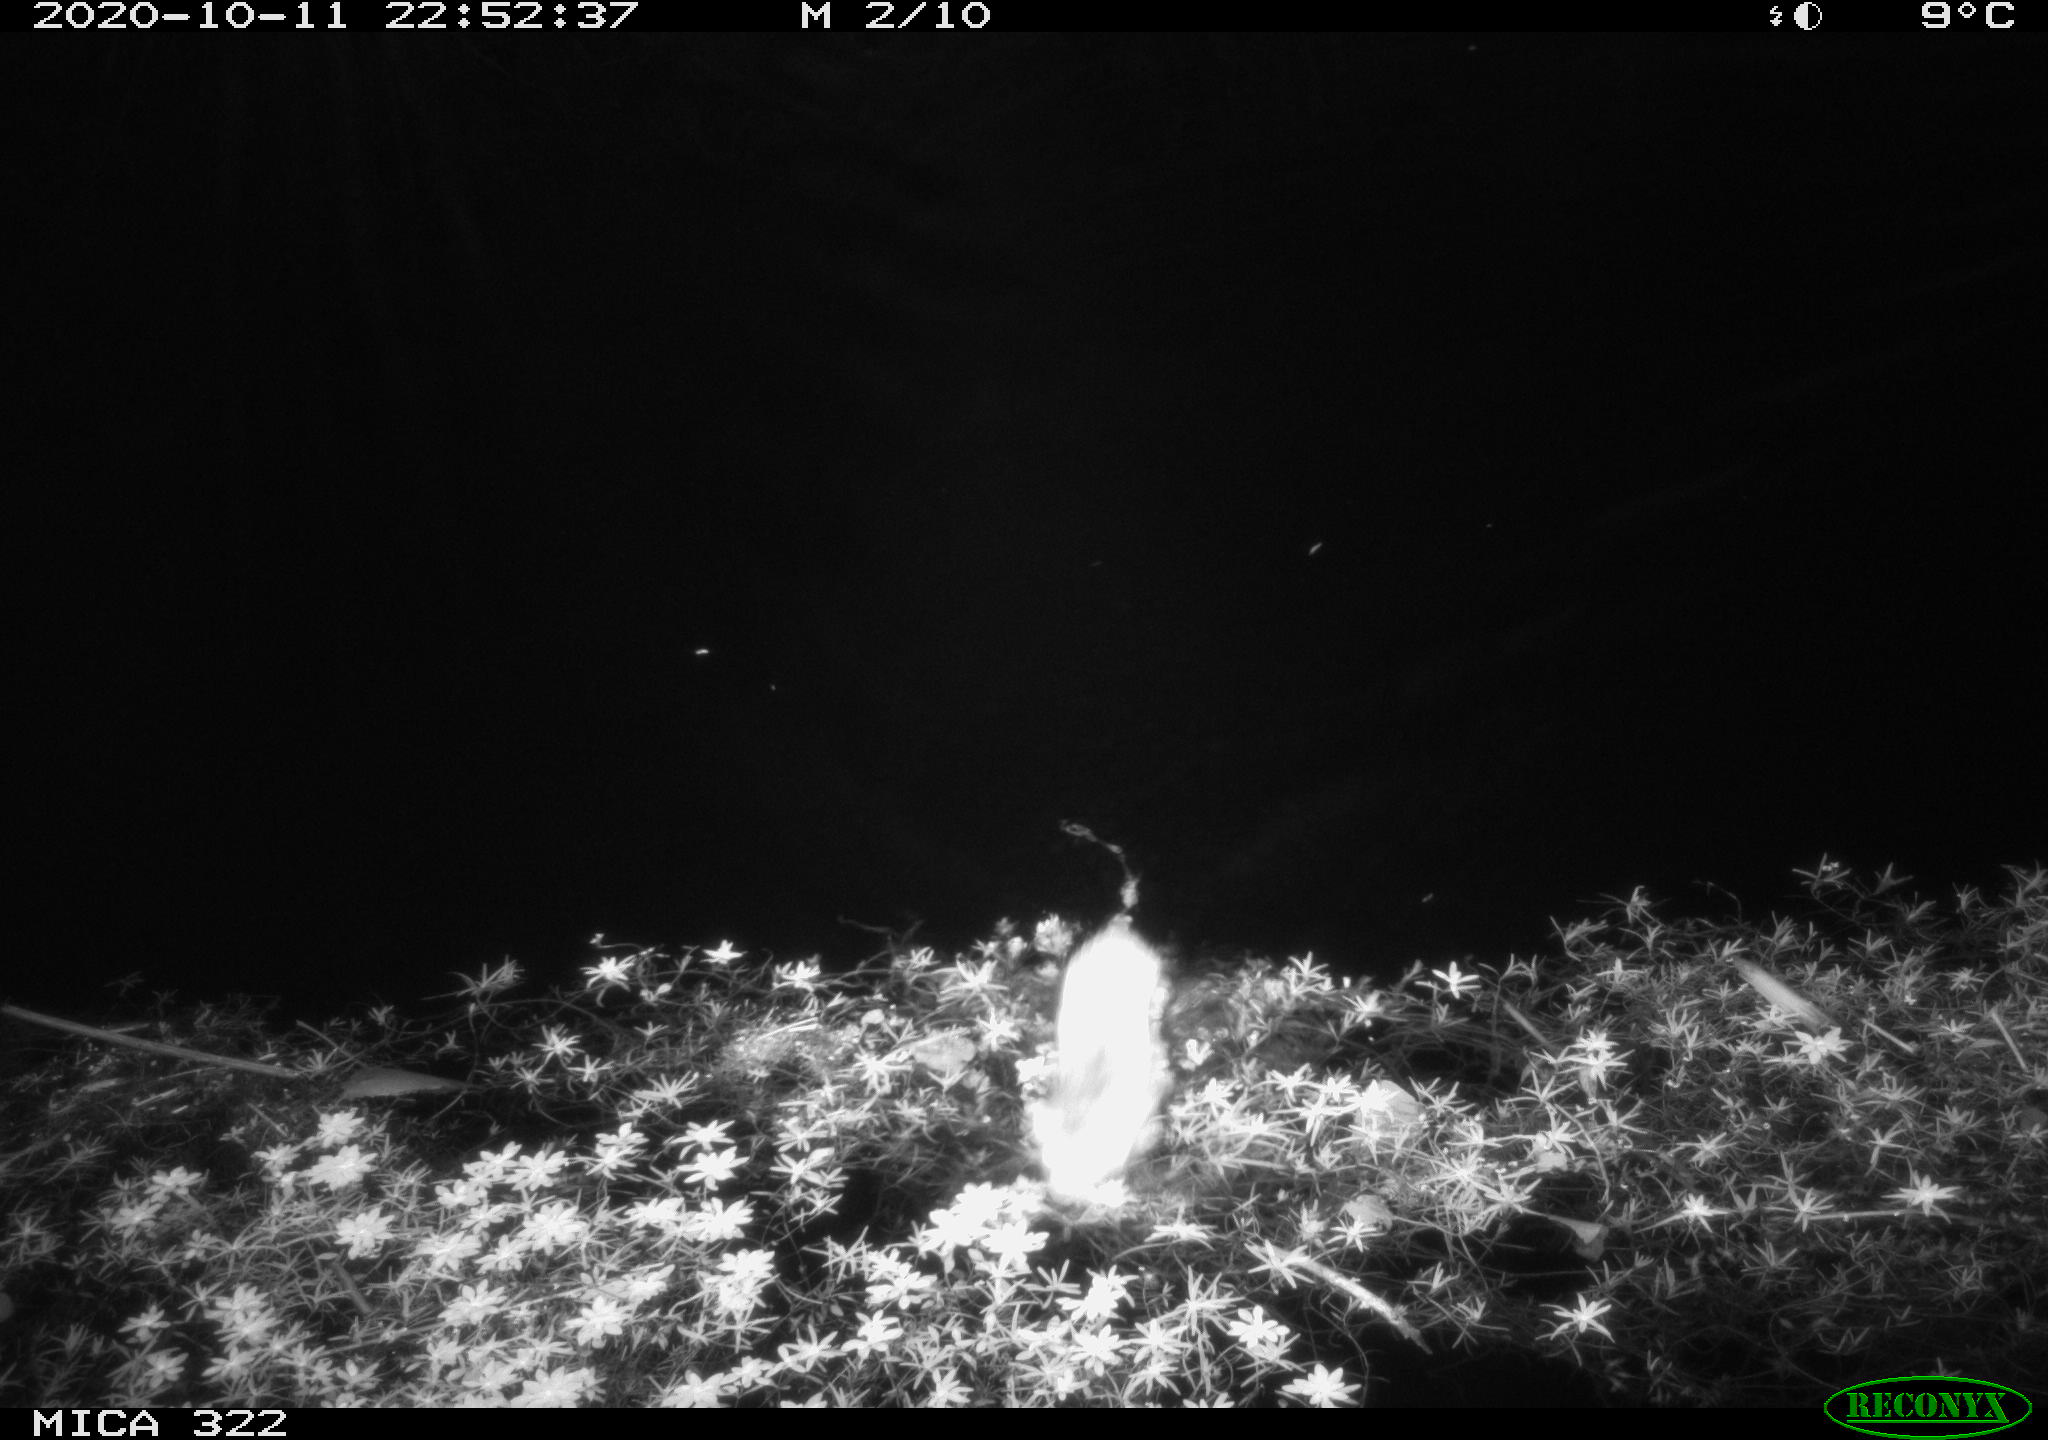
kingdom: Animalia
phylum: Chordata
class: Mammalia
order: Rodentia
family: Muridae
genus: Rattus
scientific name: Rattus norvegicus
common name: Brown rat
